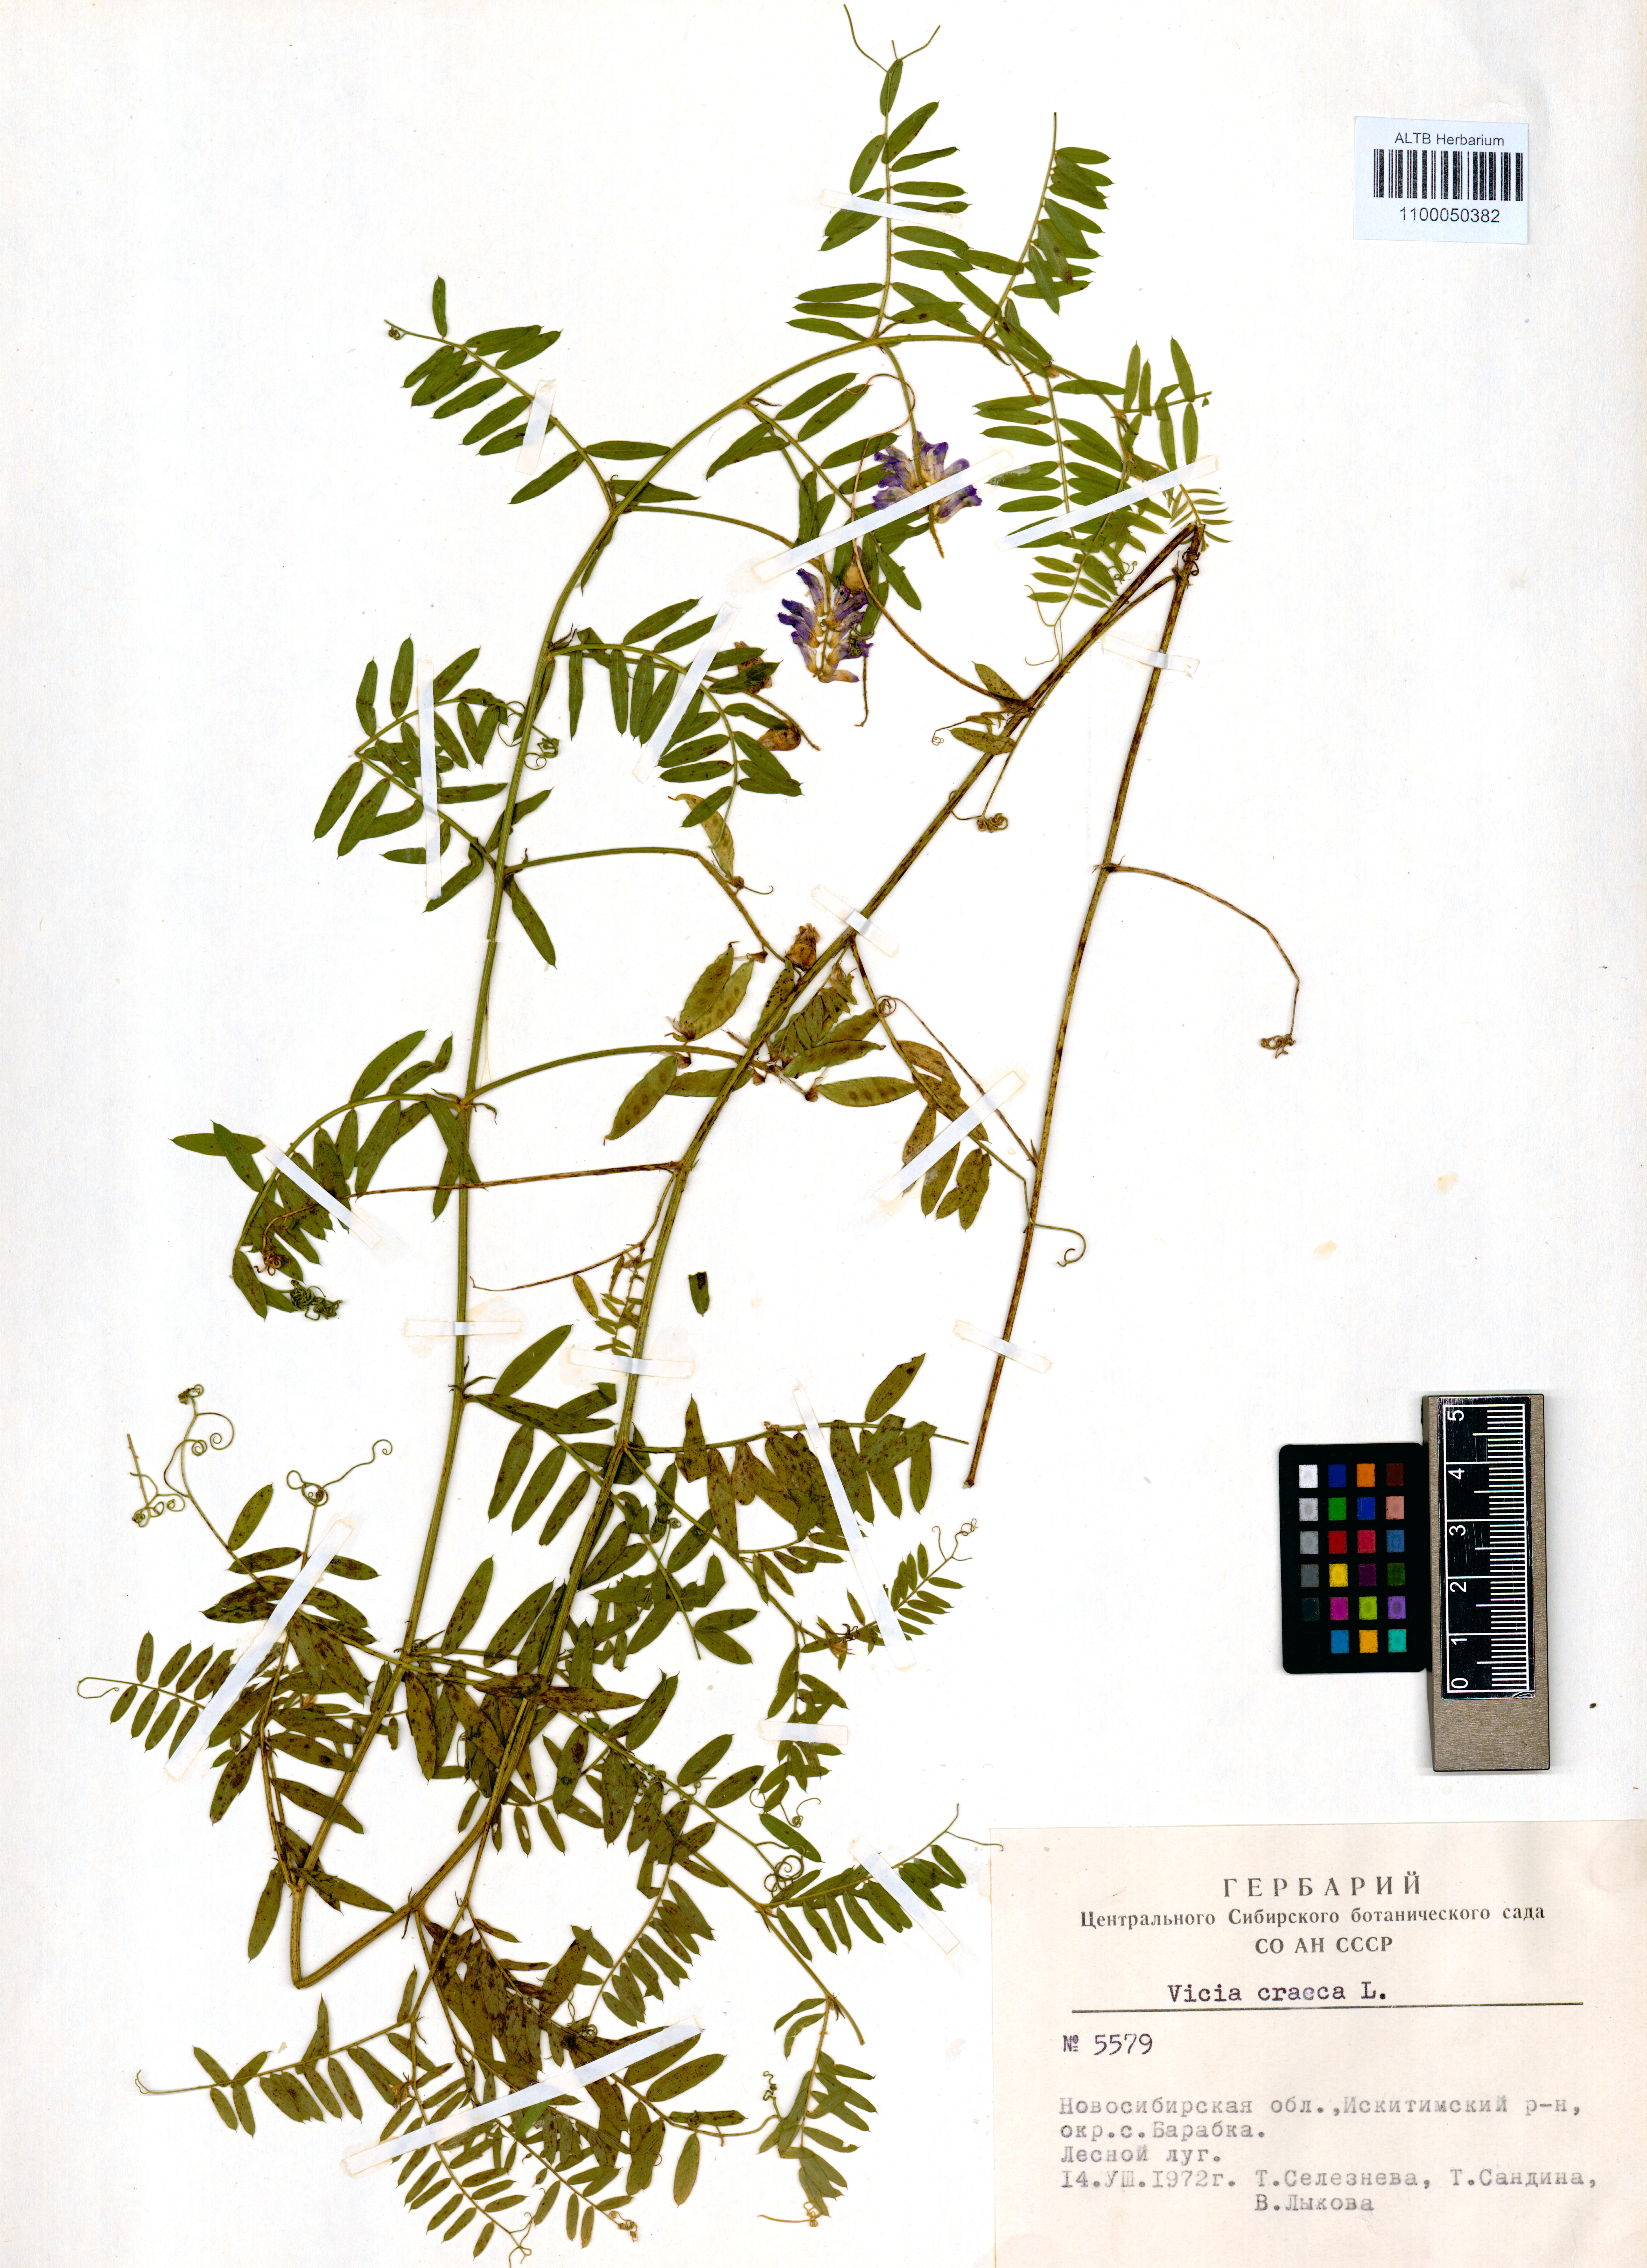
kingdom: Plantae
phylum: Tracheophyta
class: Magnoliopsida
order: Fabales
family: Fabaceae
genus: Vicia
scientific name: Vicia cracca
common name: Bird vetch
